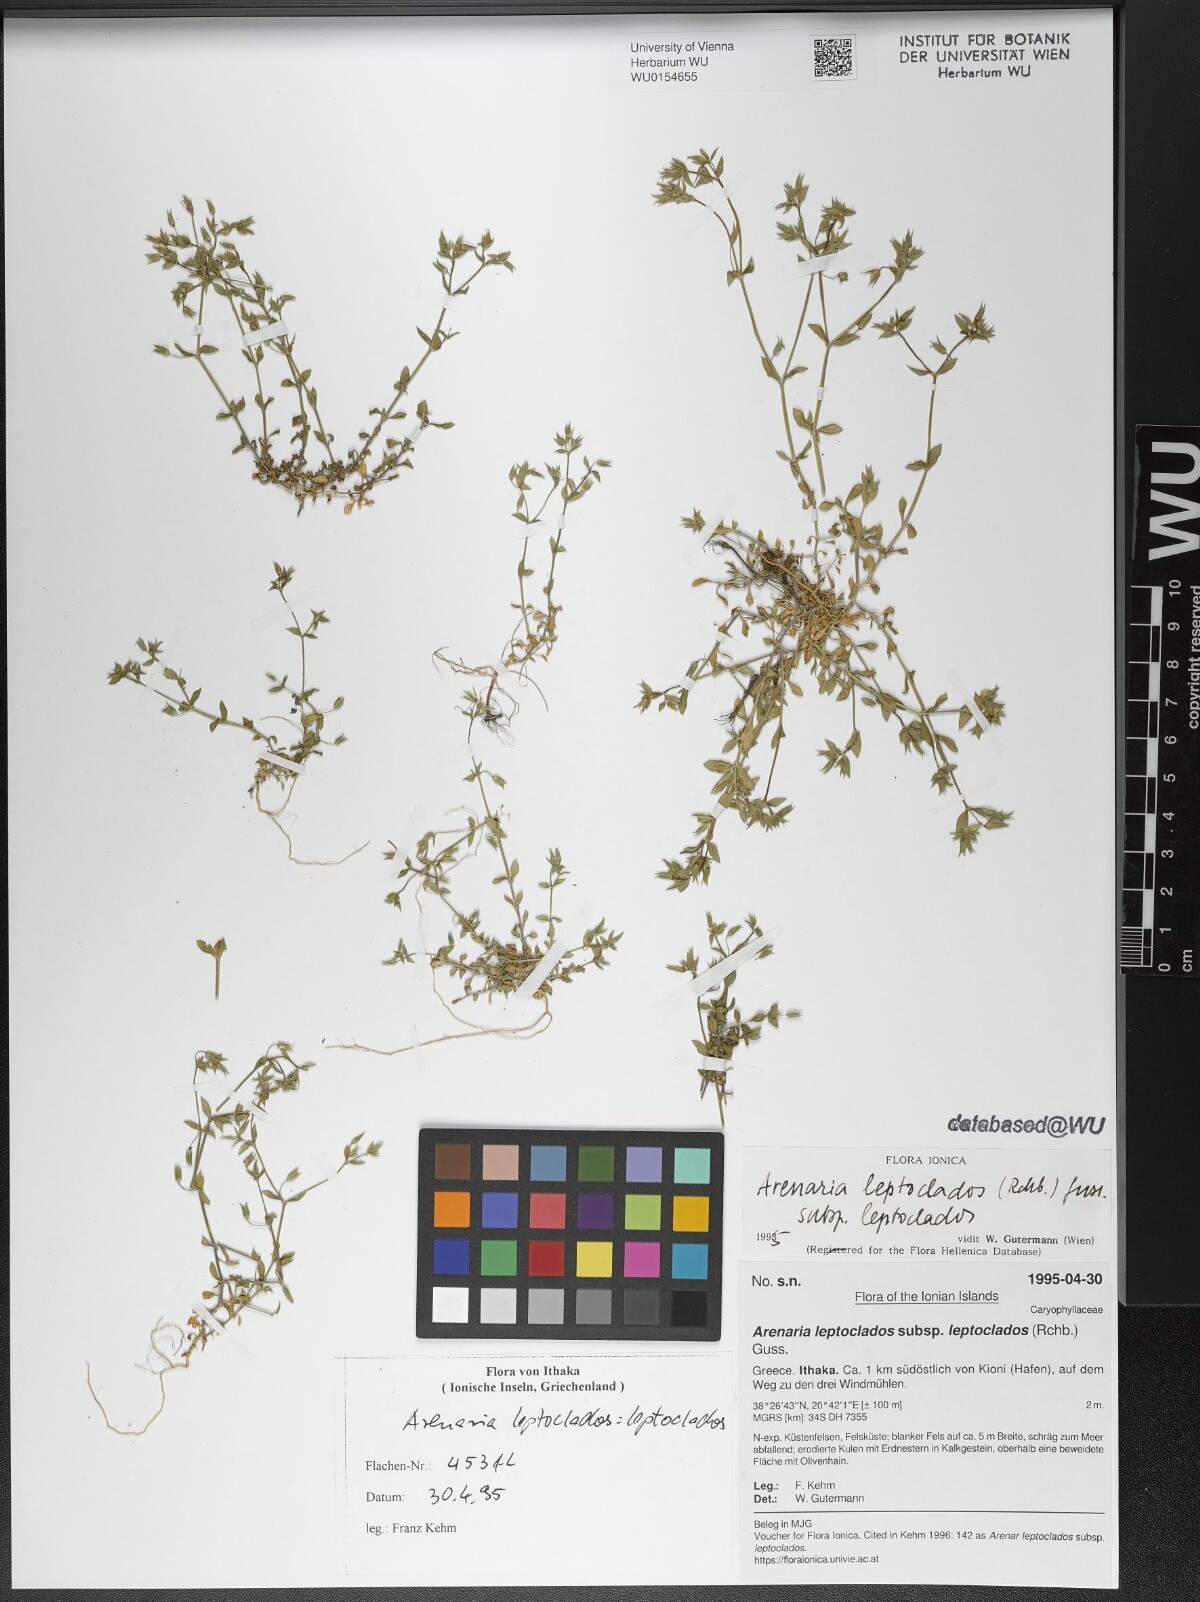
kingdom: Plantae
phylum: Tracheophyta
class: Magnoliopsida
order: Caryophyllales
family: Caryophyllaceae
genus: Arenaria
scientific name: Arenaria leptoclados
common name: Thyme-leaved sandwort
